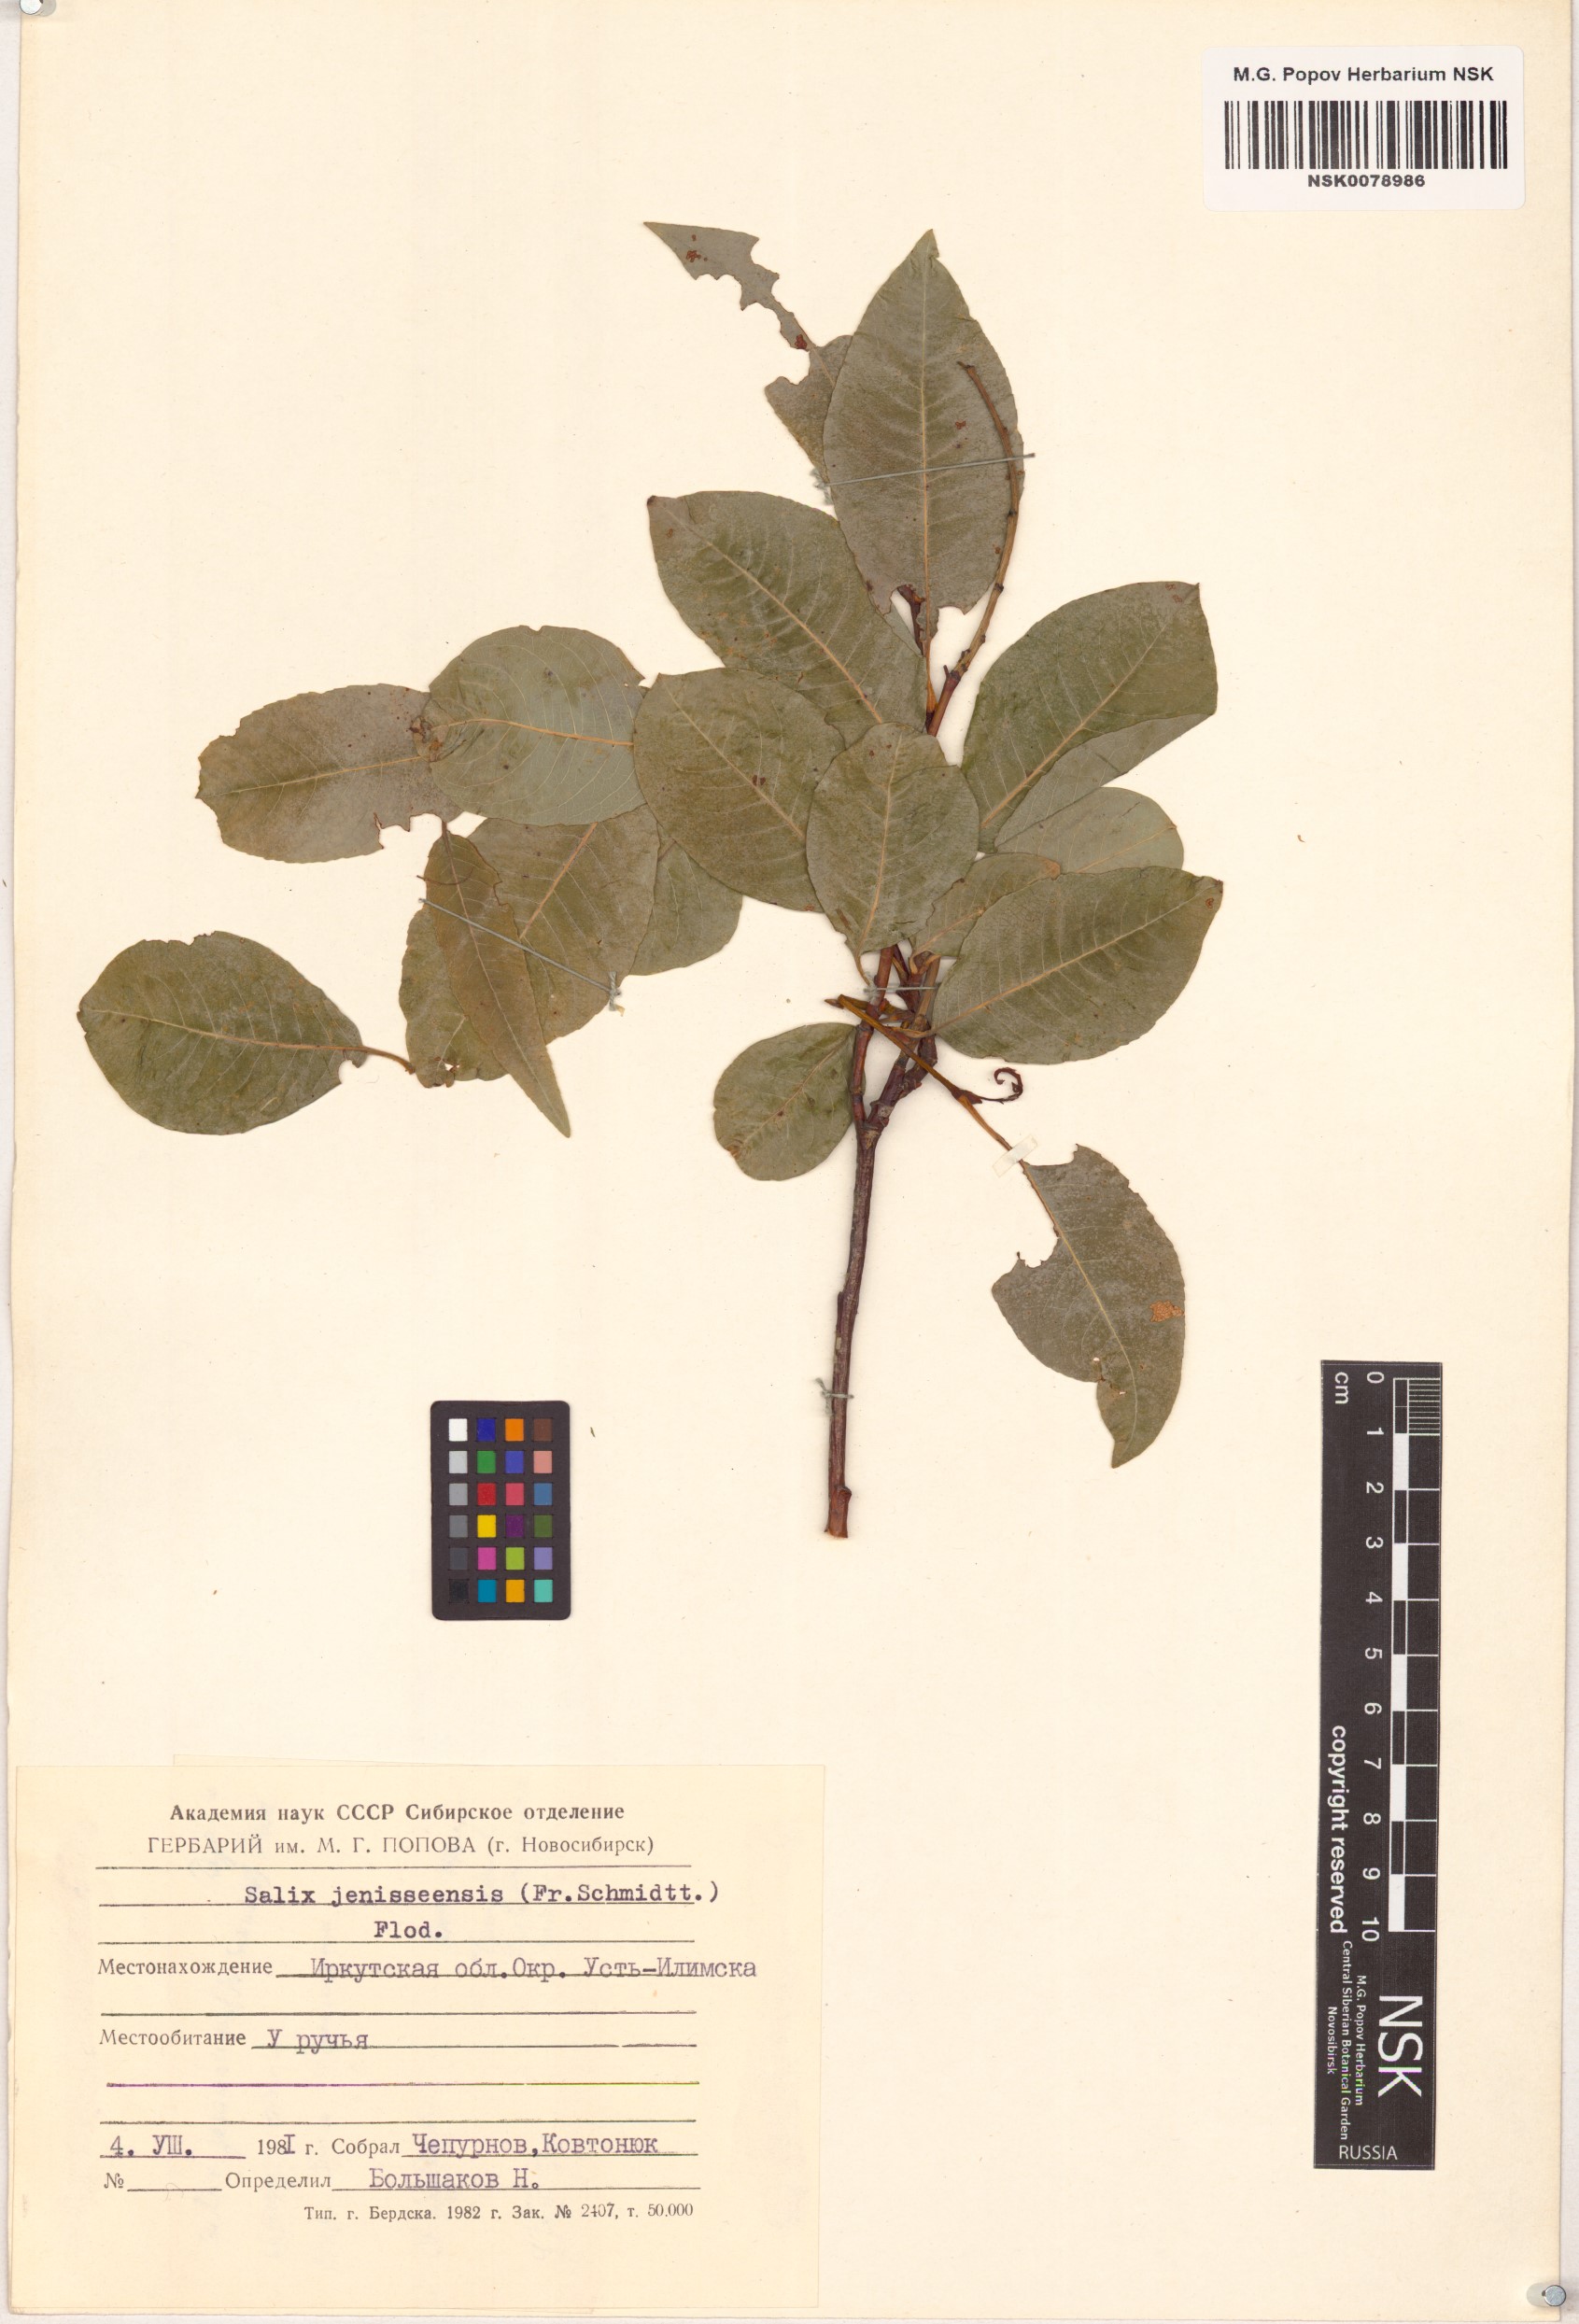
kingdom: Plantae
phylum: Tracheophyta
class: Magnoliopsida
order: Malpighiales
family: Salicaceae
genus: Salix
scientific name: Salix jenisseensis
